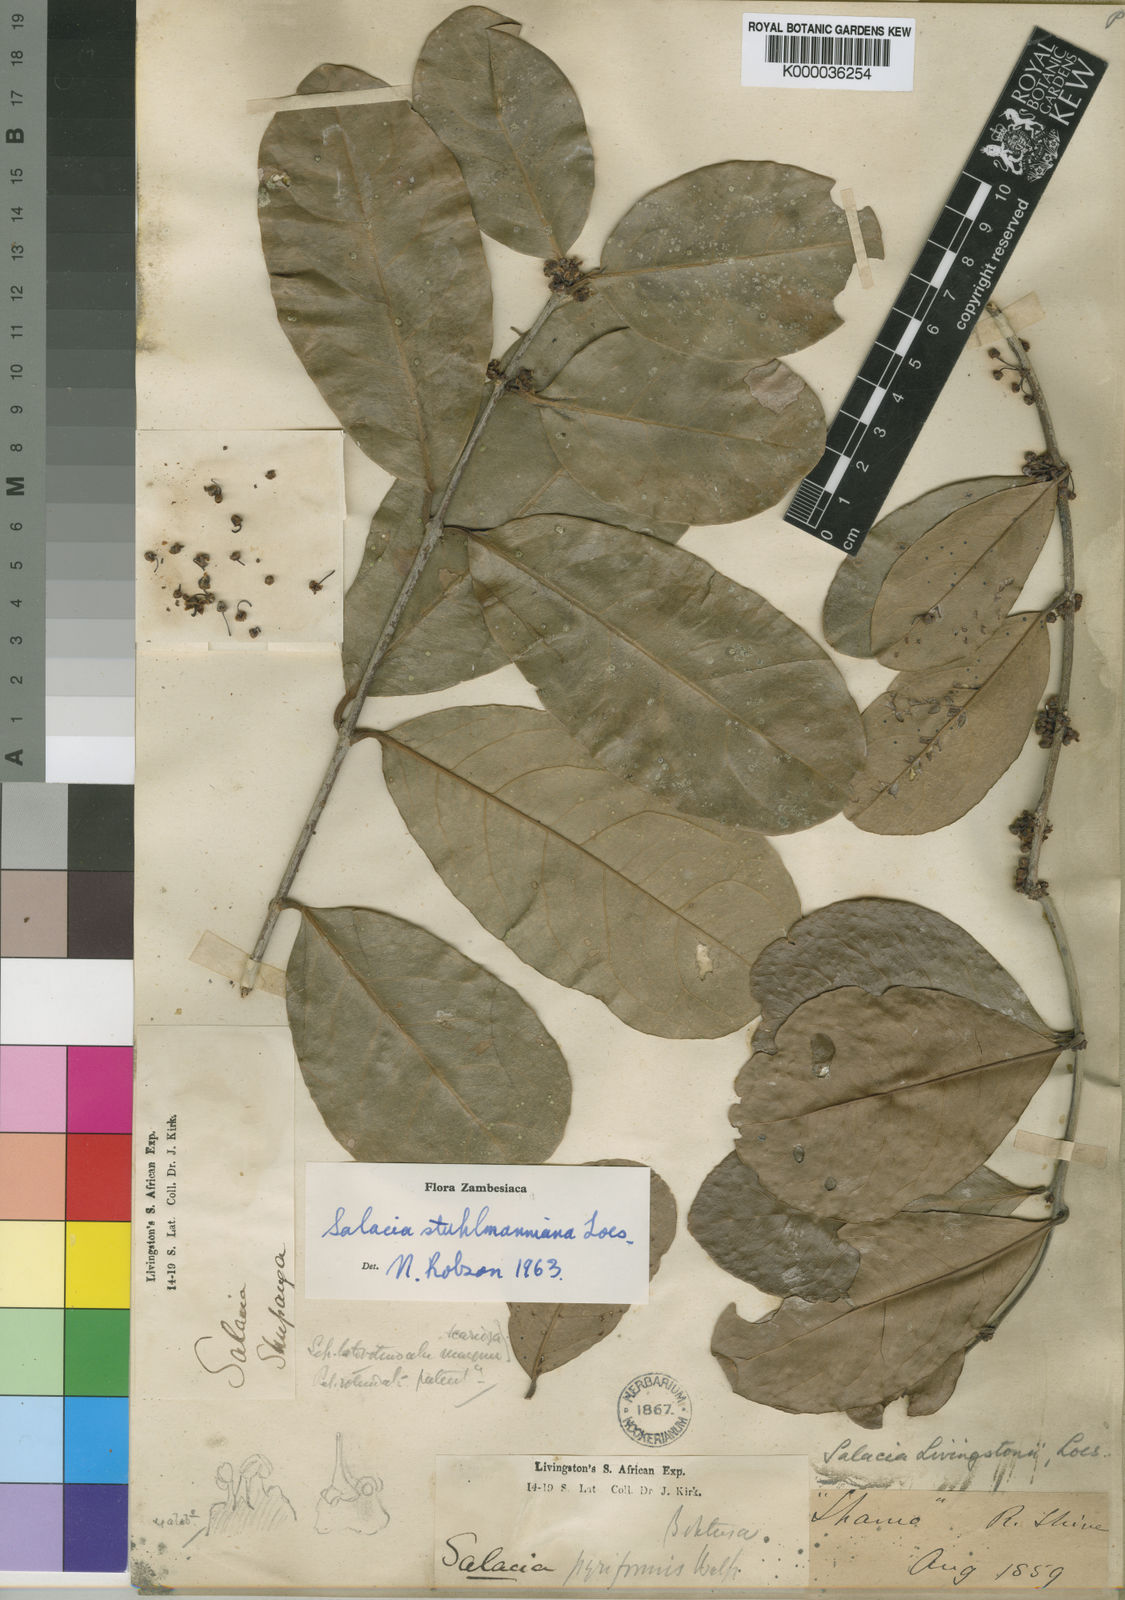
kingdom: Plantae
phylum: Tracheophyta
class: Magnoliopsida
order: Celastrales
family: Celastraceae
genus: Salacia
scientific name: Salacia stuhlmanniana
